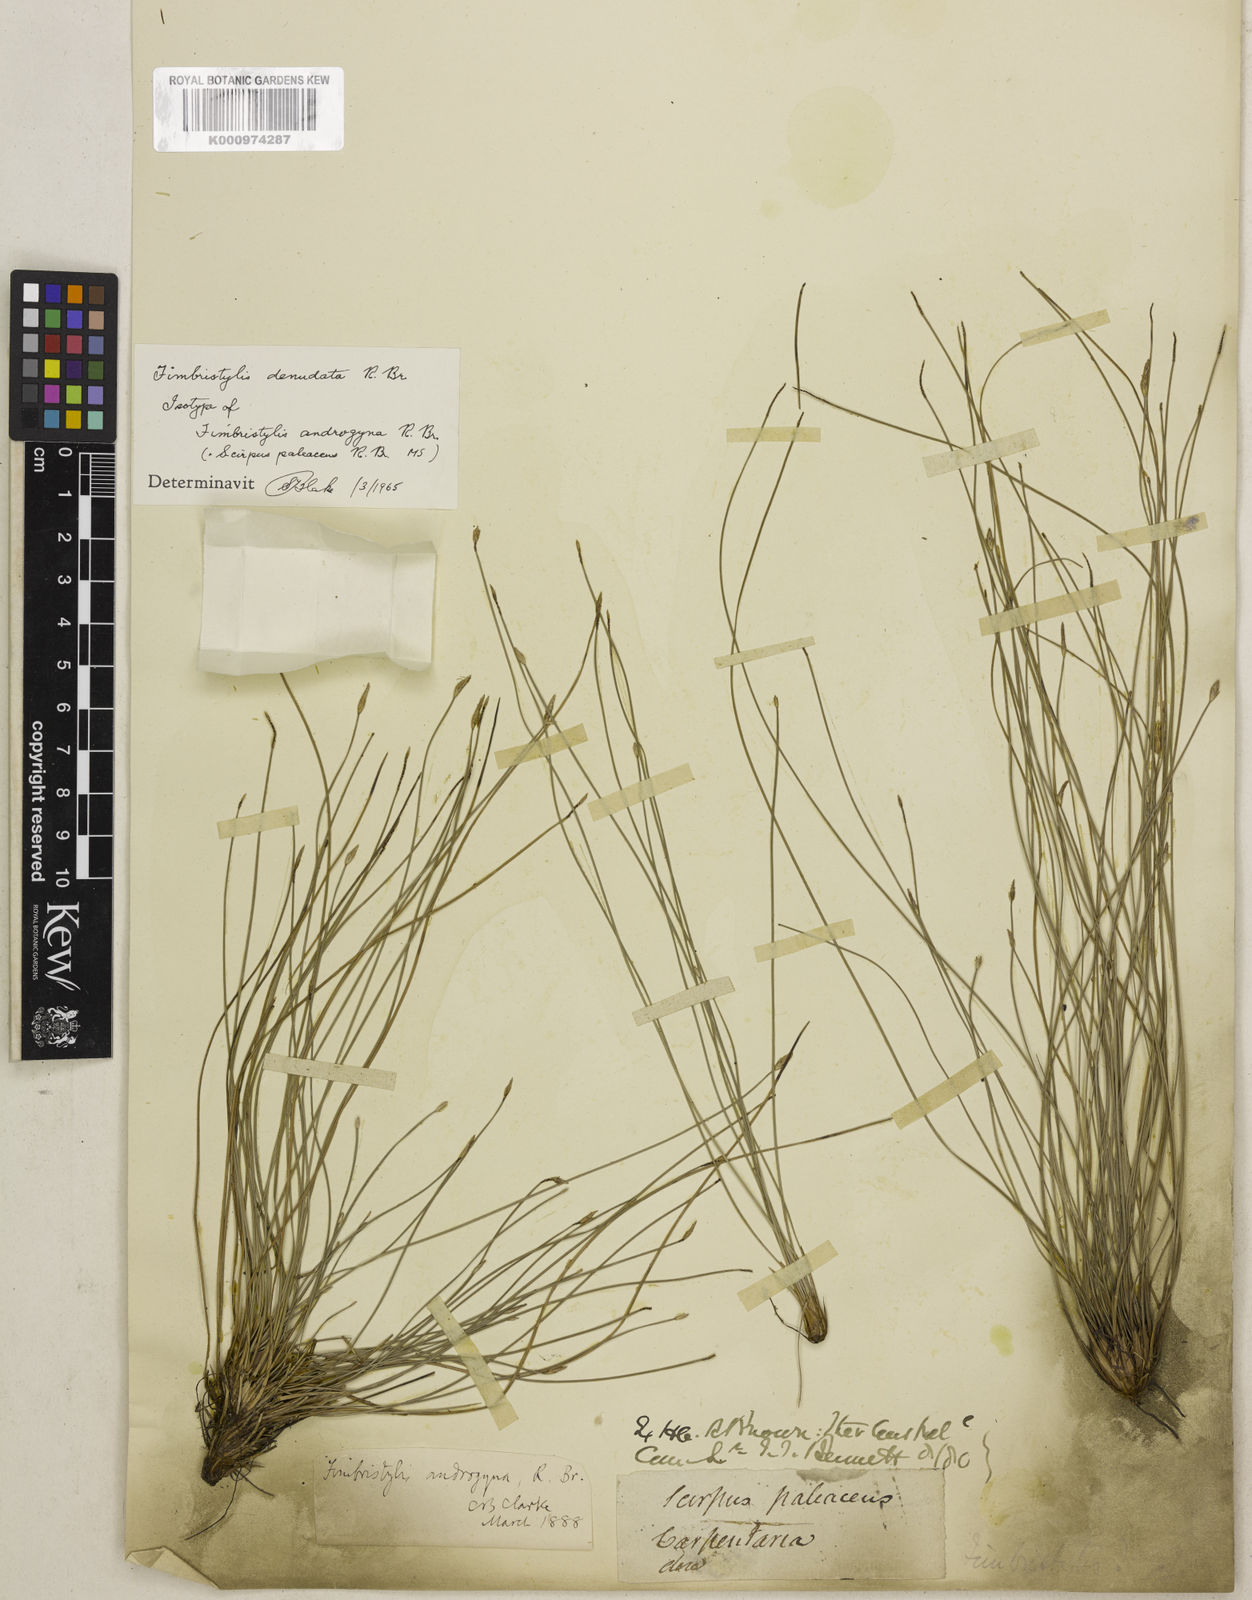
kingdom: Plantae
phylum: Tracheophyta
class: Liliopsida
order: Poales
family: Cyperaceae
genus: Fimbristylis
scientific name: Fimbristylis denudata
